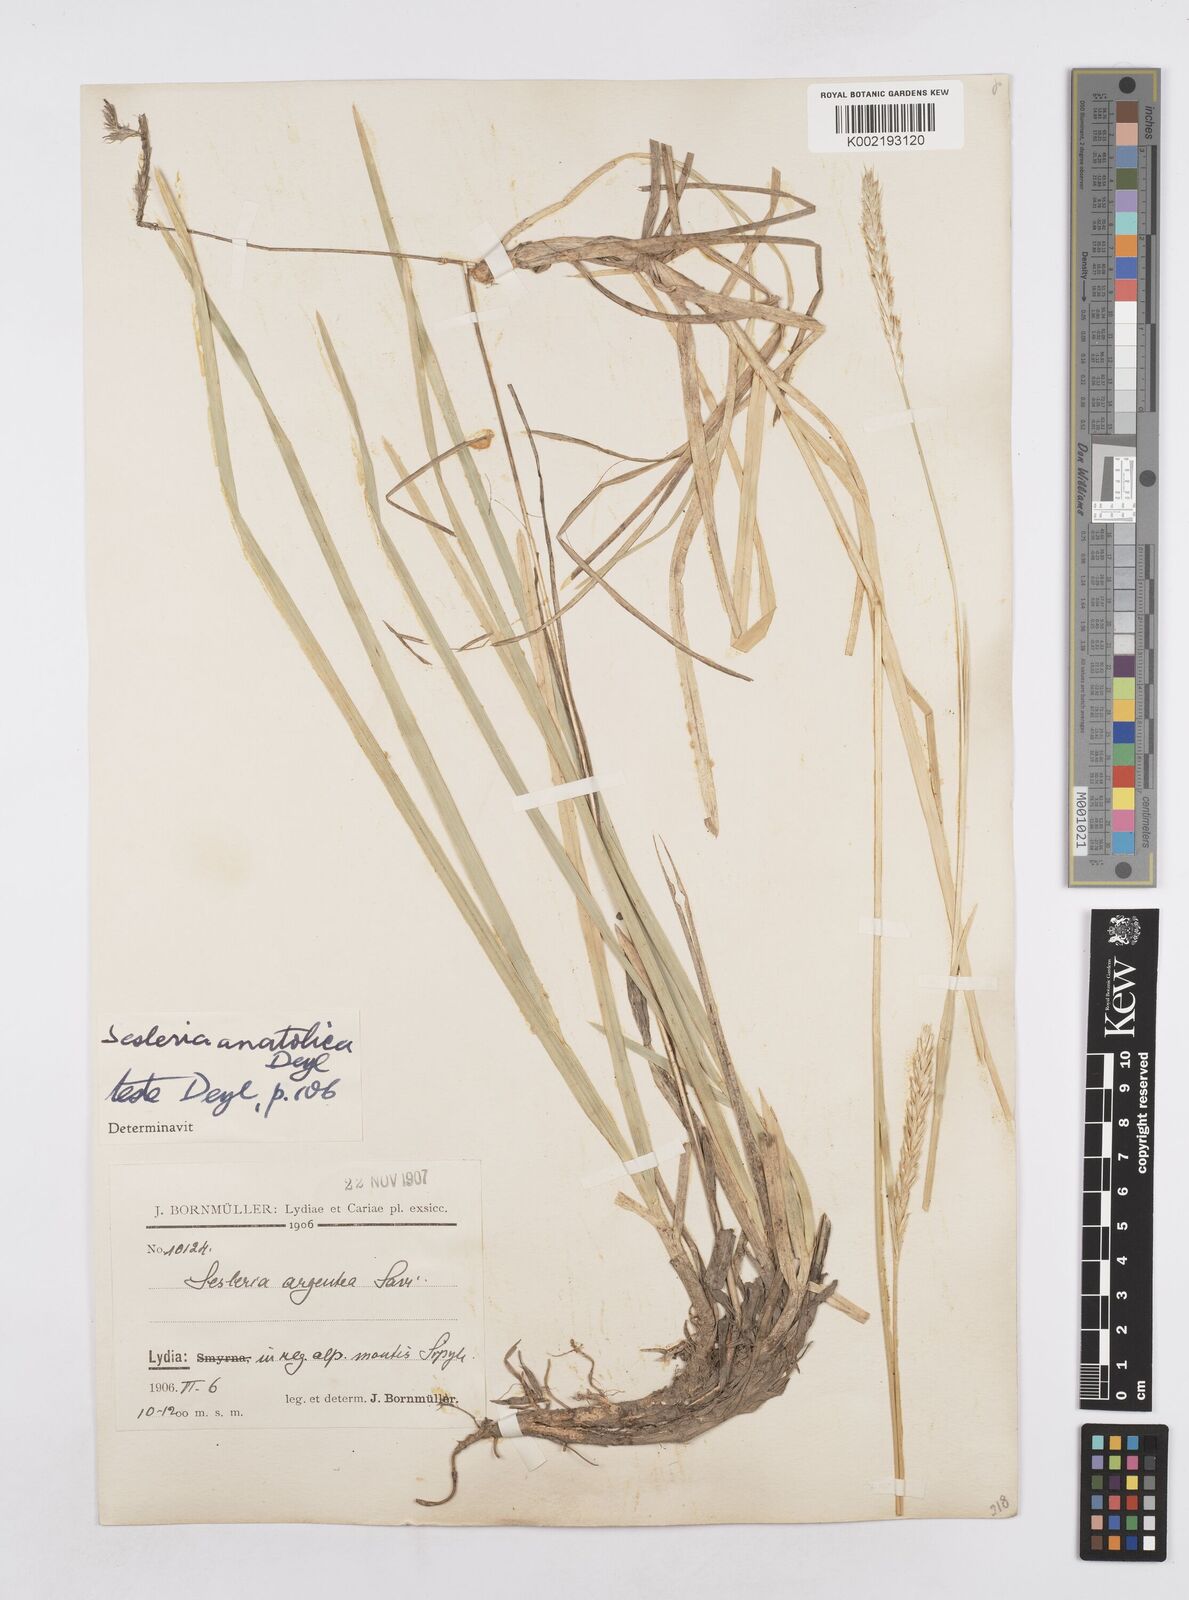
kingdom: Plantae
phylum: Tracheophyta
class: Liliopsida
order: Poales
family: Poaceae
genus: Sesleria
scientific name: Sesleria argentea
